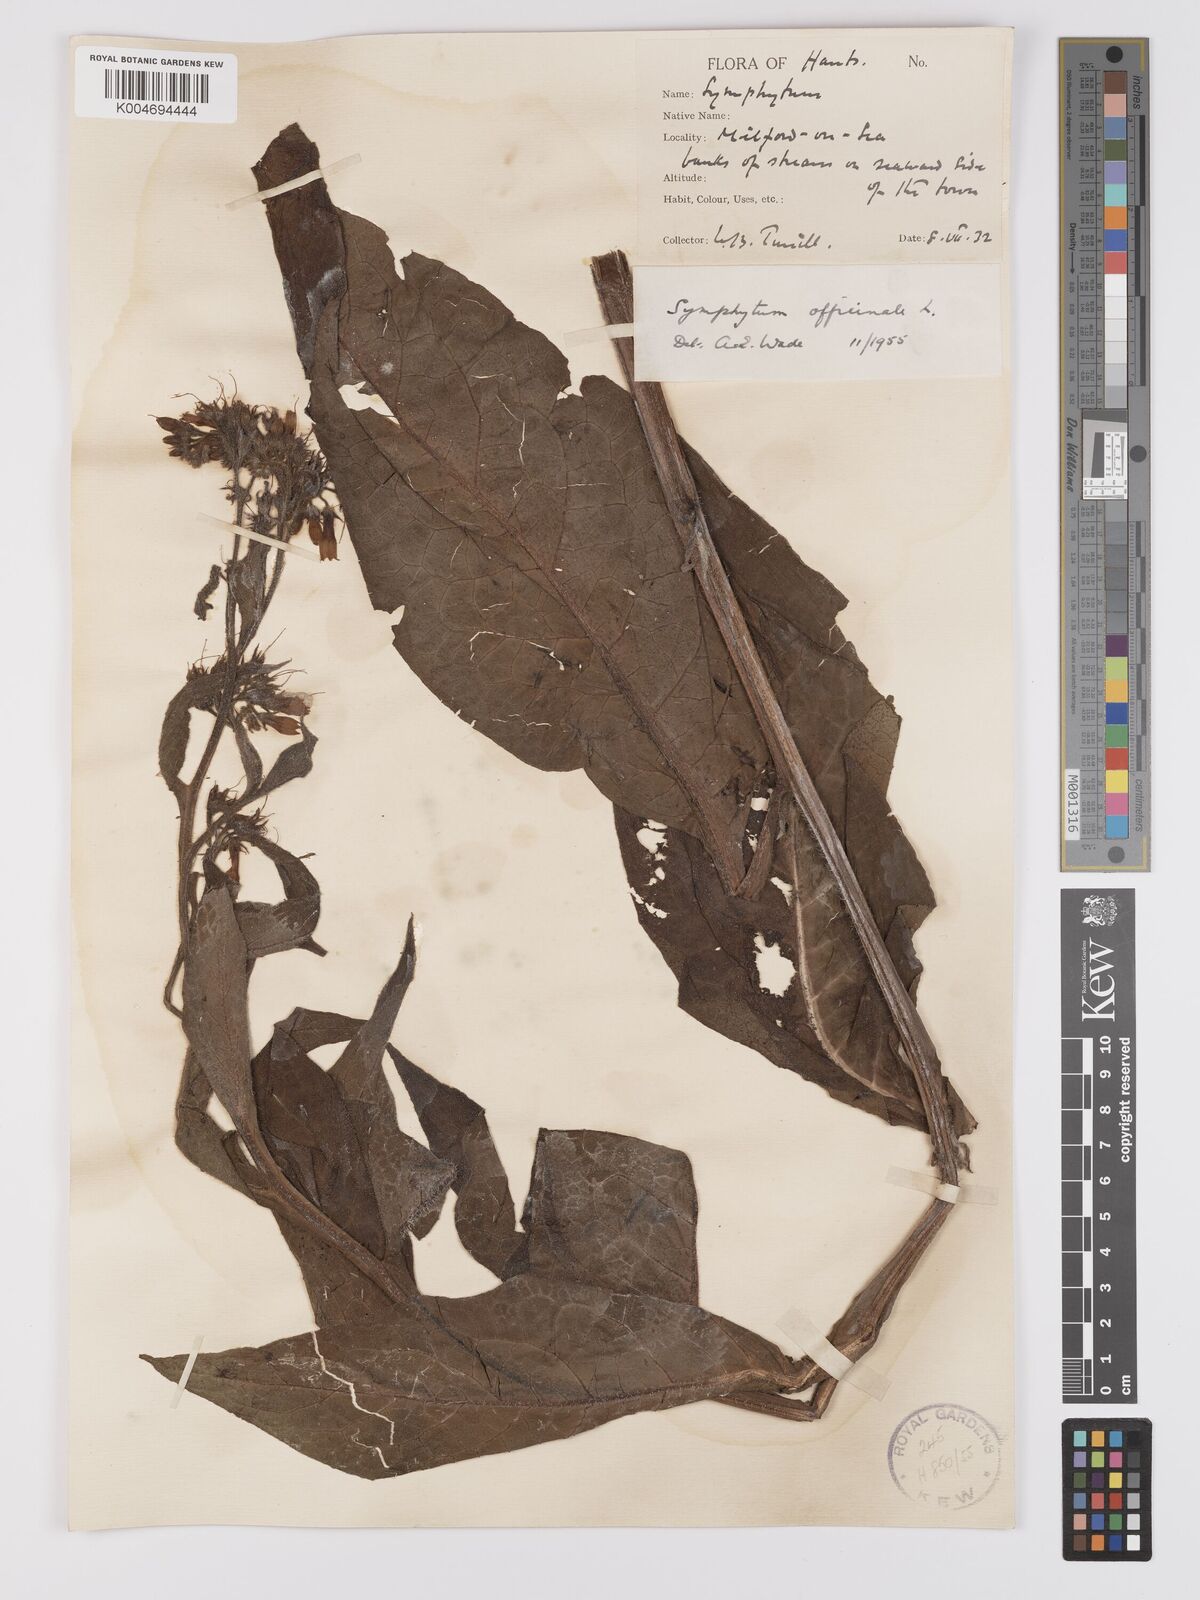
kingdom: Plantae
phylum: Tracheophyta
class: Magnoliopsida
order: Boraginales
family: Boraginaceae
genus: Symphytum
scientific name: Symphytum officinale
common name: Common comfrey
